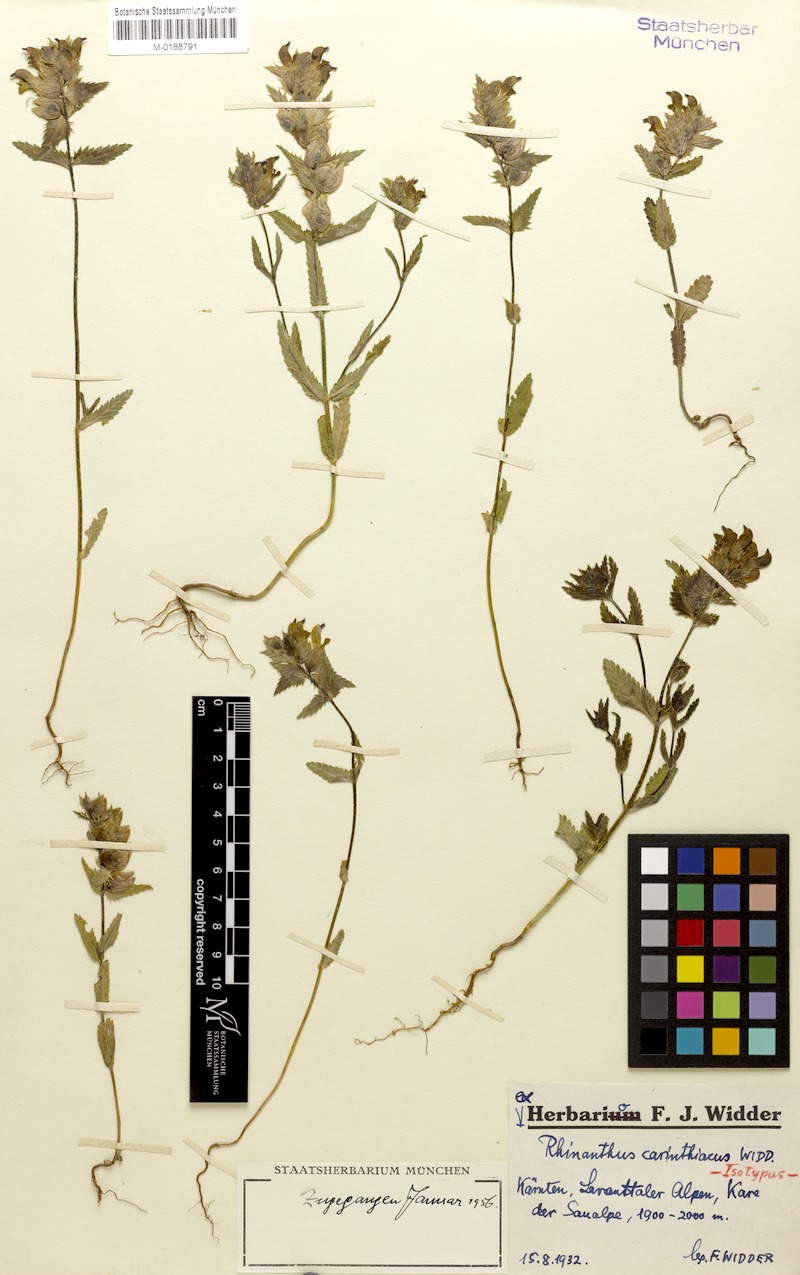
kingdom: Plantae
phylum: Tracheophyta
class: Magnoliopsida
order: Lamiales
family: Orobanchaceae
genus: Rhinanthus
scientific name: Rhinanthus carinthiacus
